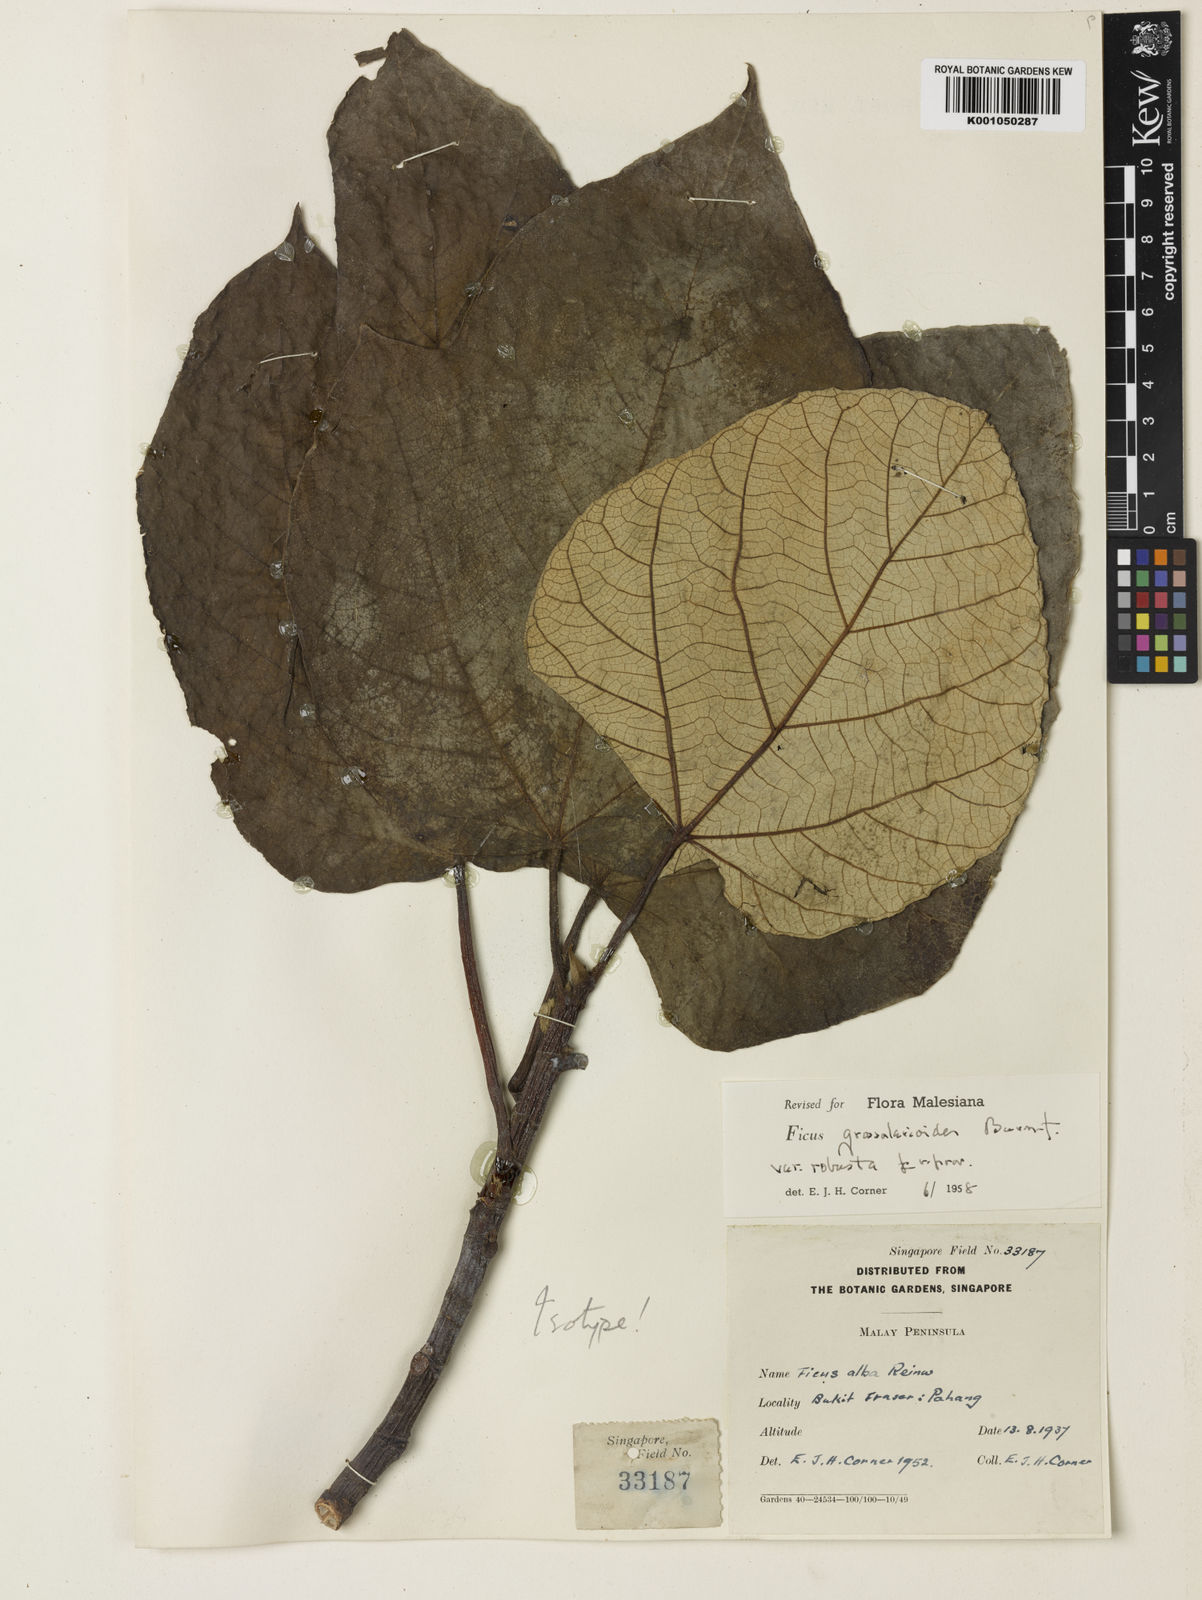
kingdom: Plantae
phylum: Tracheophyta
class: Magnoliopsida
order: Rosales
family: Moraceae
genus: Ficus
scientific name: Ficus tricolor
